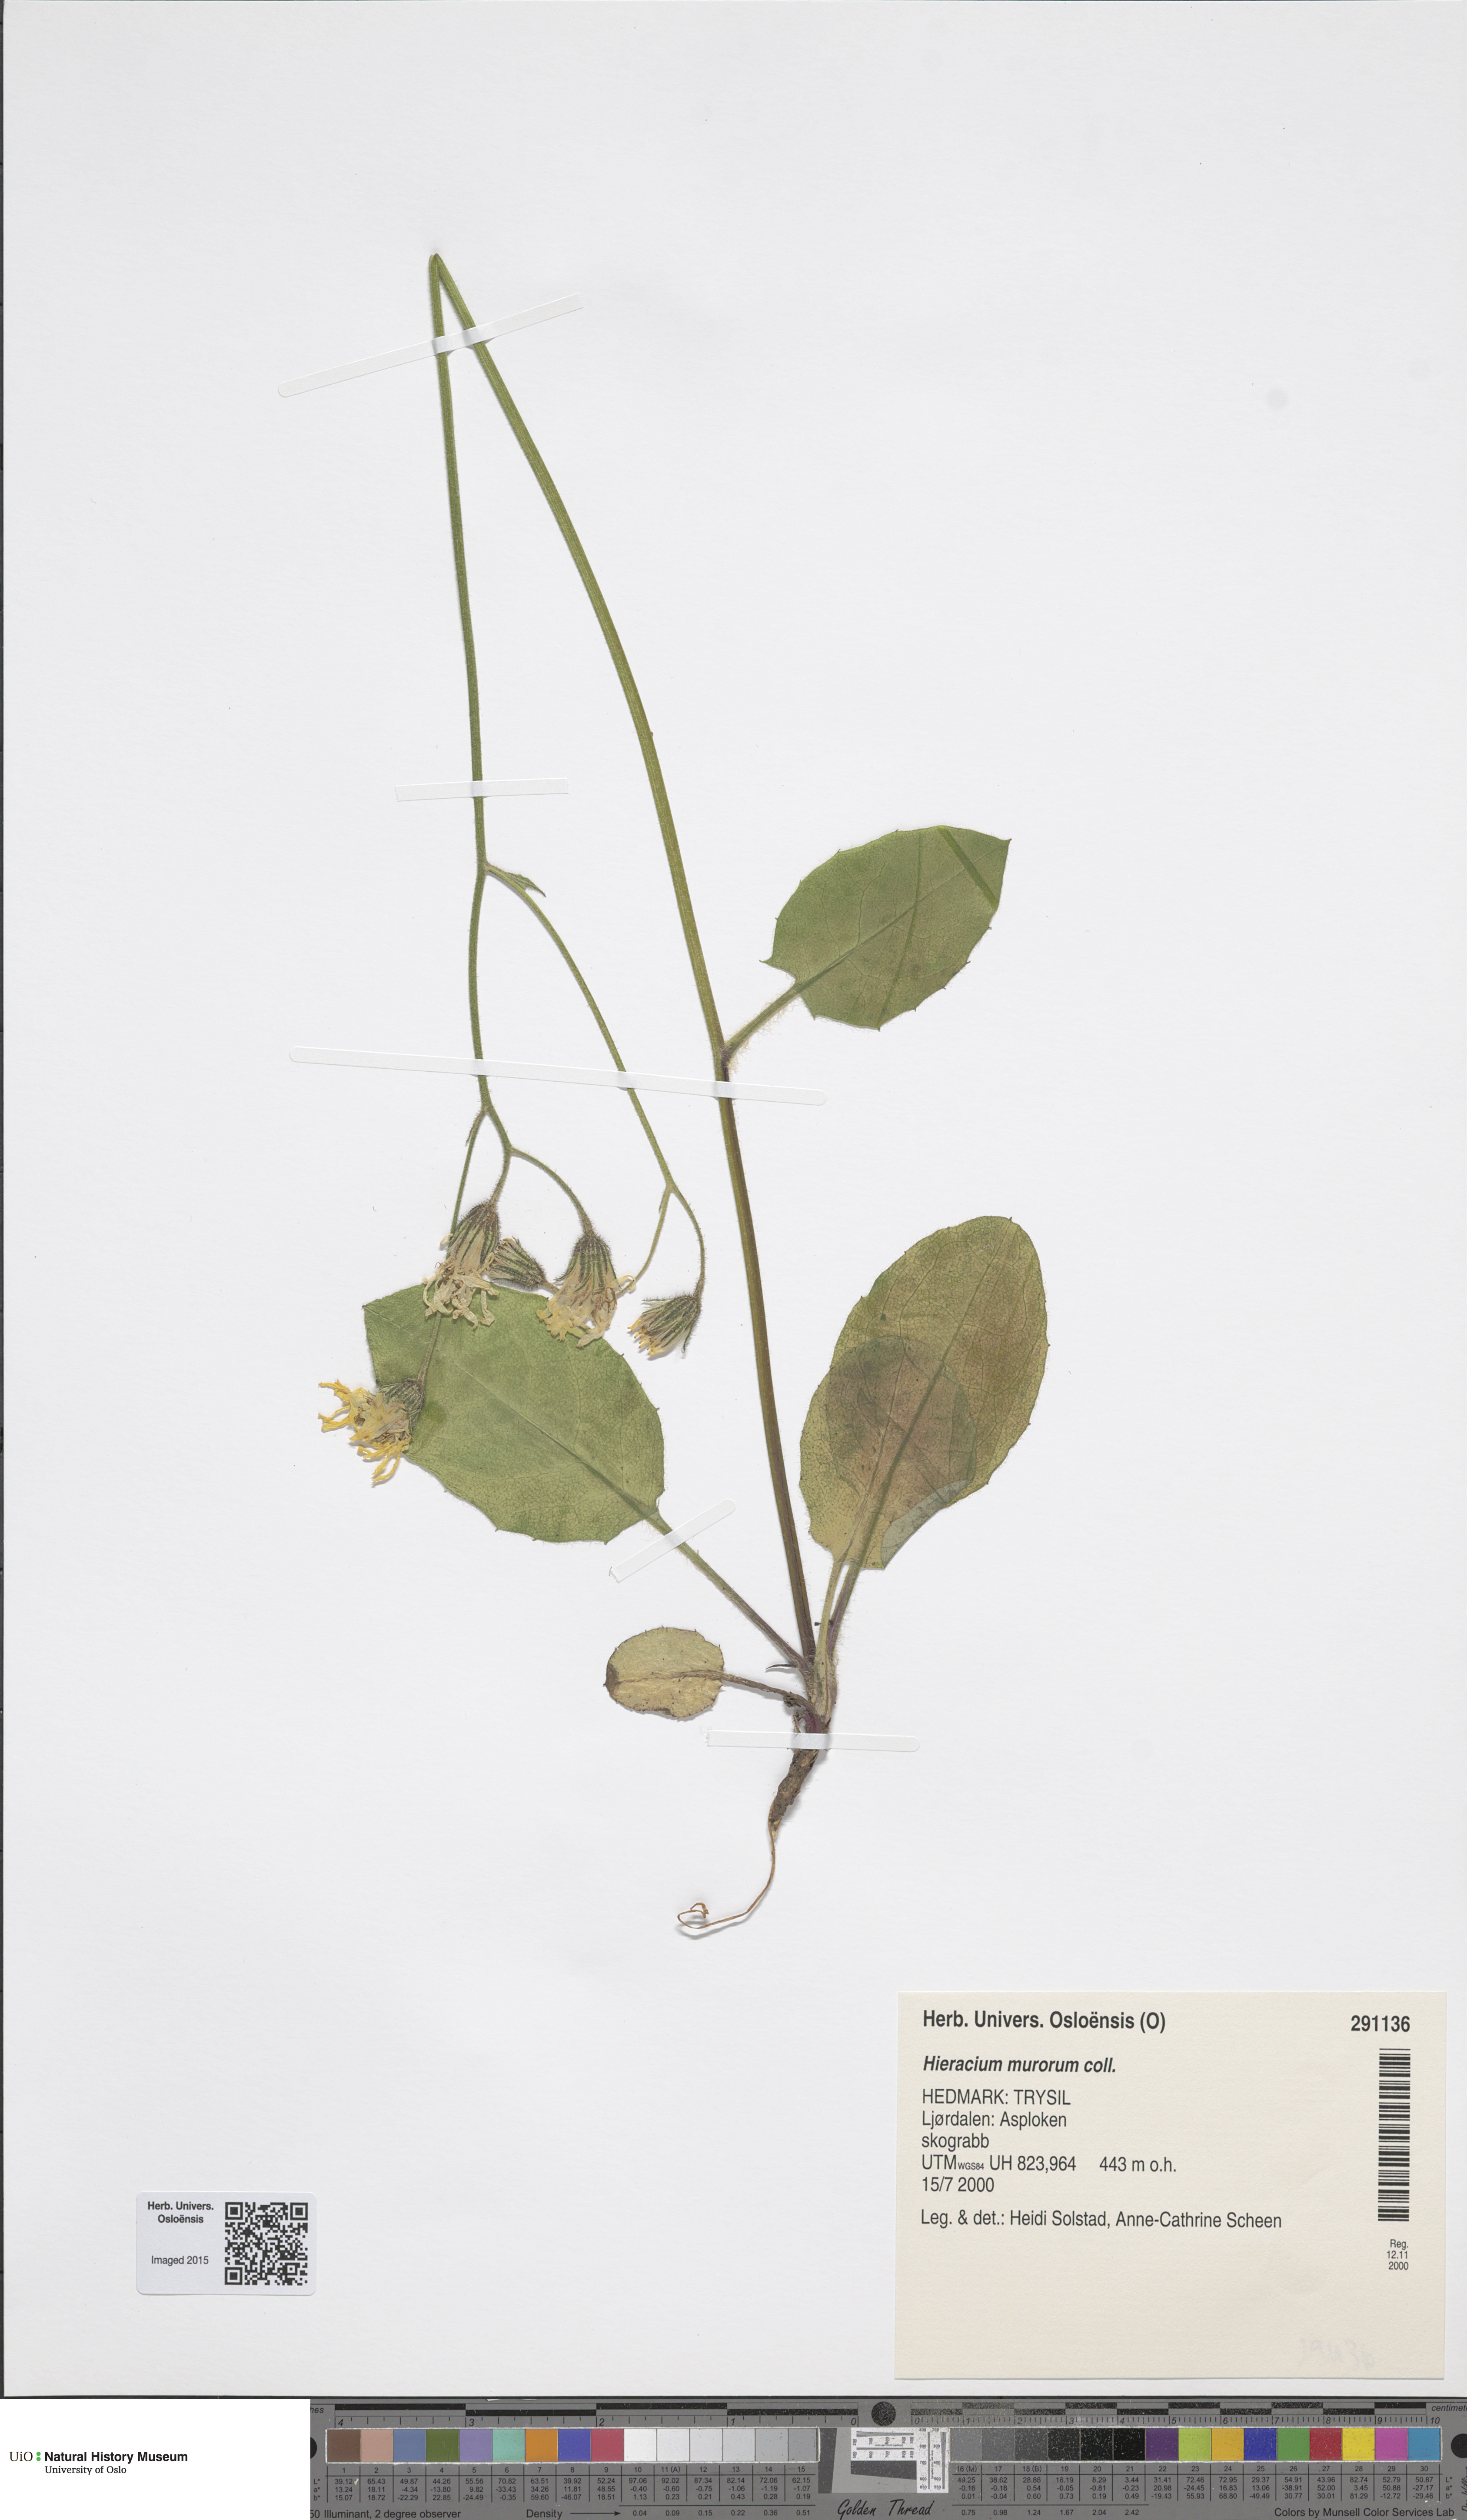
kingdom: Plantae
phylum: Tracheophyta
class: Magnoliopsida
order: Asterales
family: Asteraceae
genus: Hieracium
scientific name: Hieracium murorum
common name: Wall hawkweed
